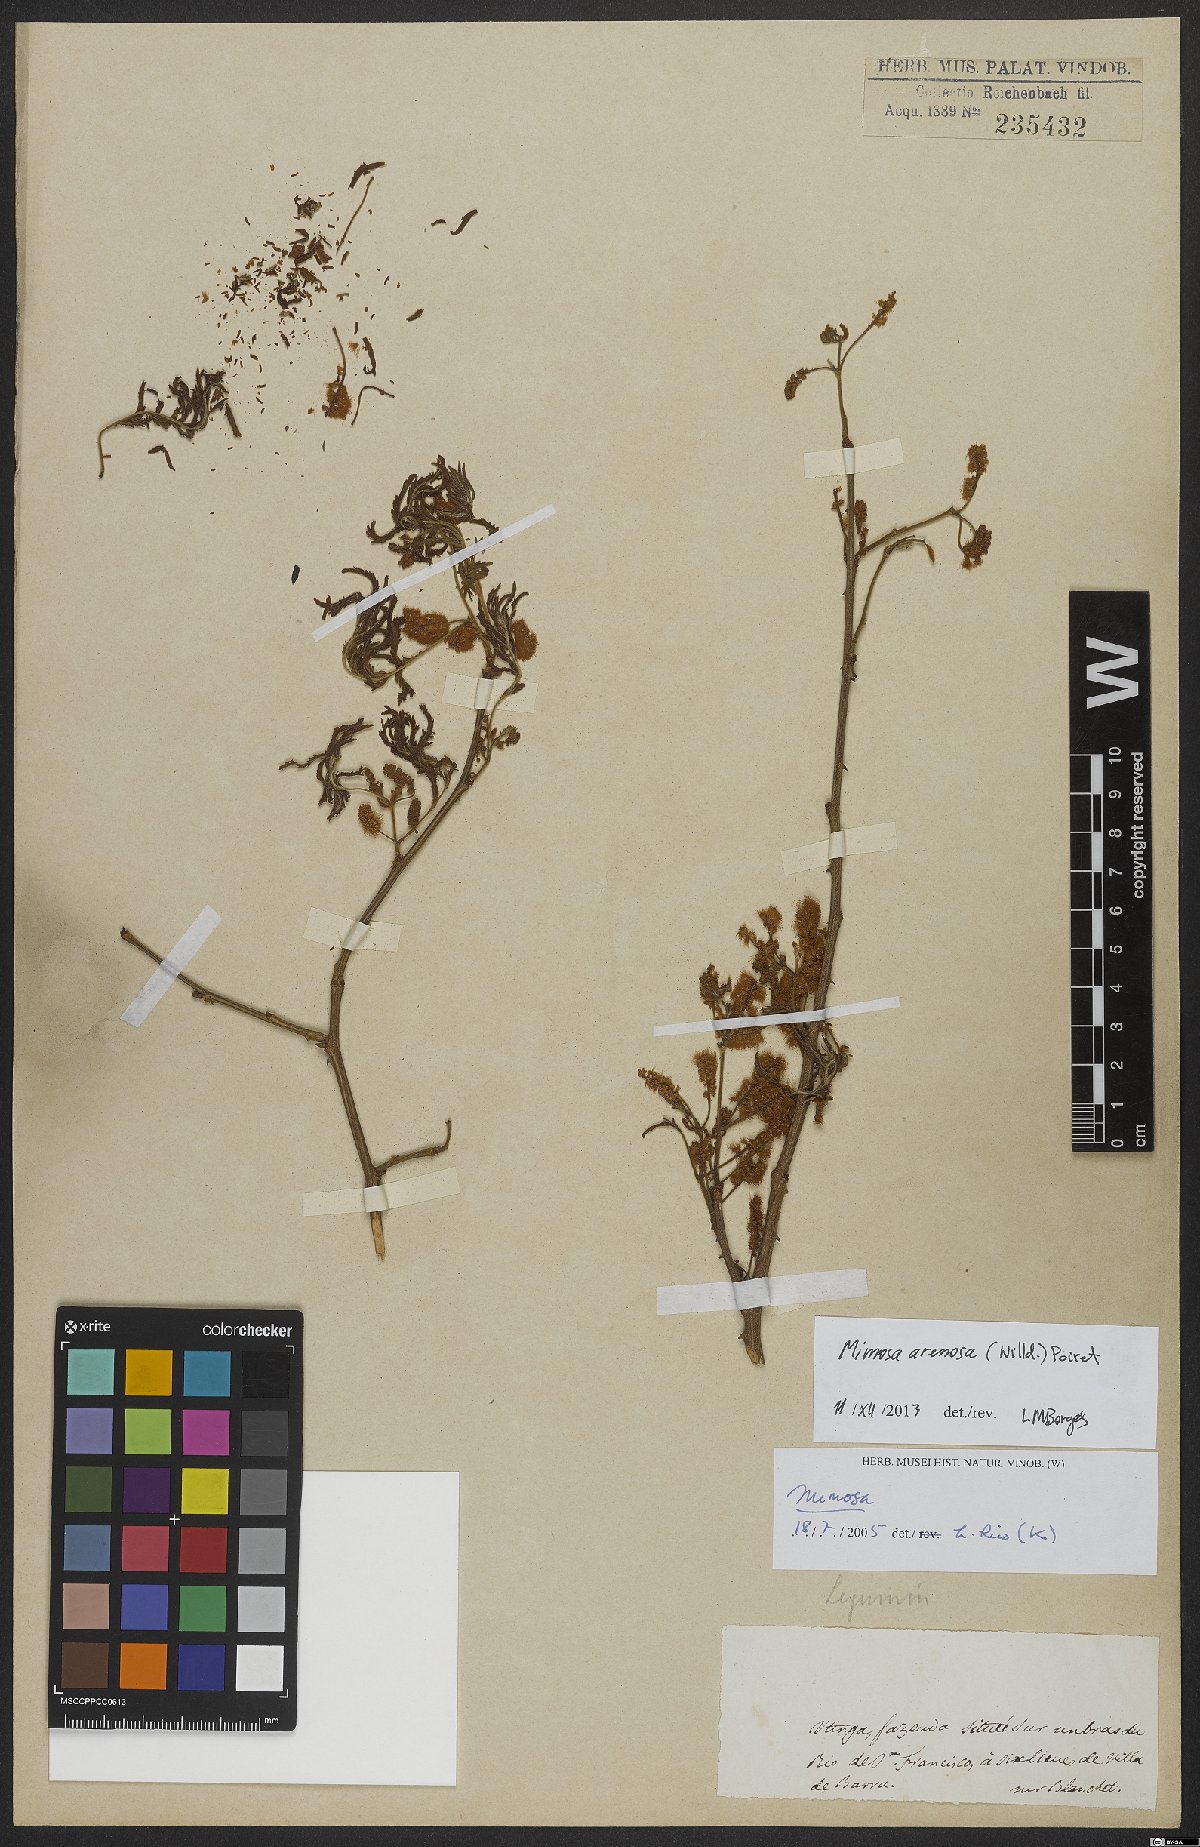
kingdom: Plantae
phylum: Tracheophyta
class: Magnoliopsida
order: Fabales
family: Fabaceae
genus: Mimosa
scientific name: Mimosa arenosa
